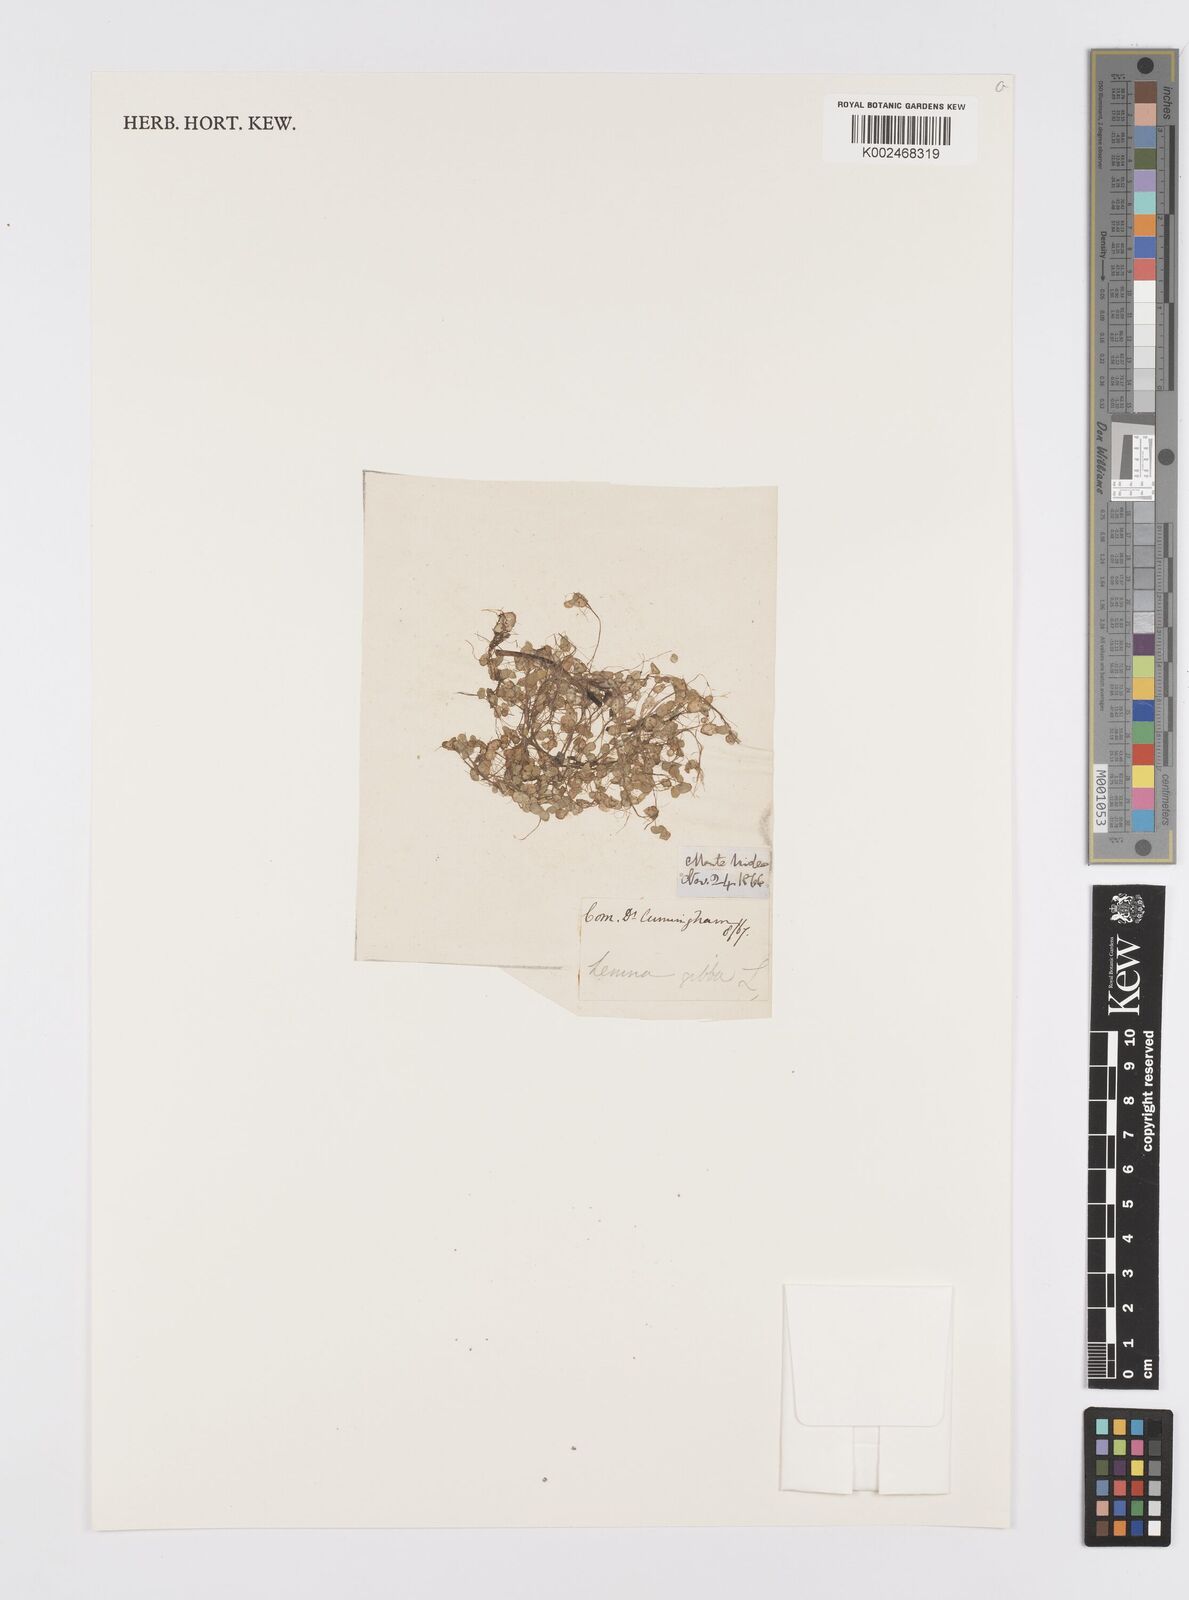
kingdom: Plantae
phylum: Tracheophyta
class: Liliopsida
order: Alismatales
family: Araceae
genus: Lemna
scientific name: Lemna gibba
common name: Fat duckweed
